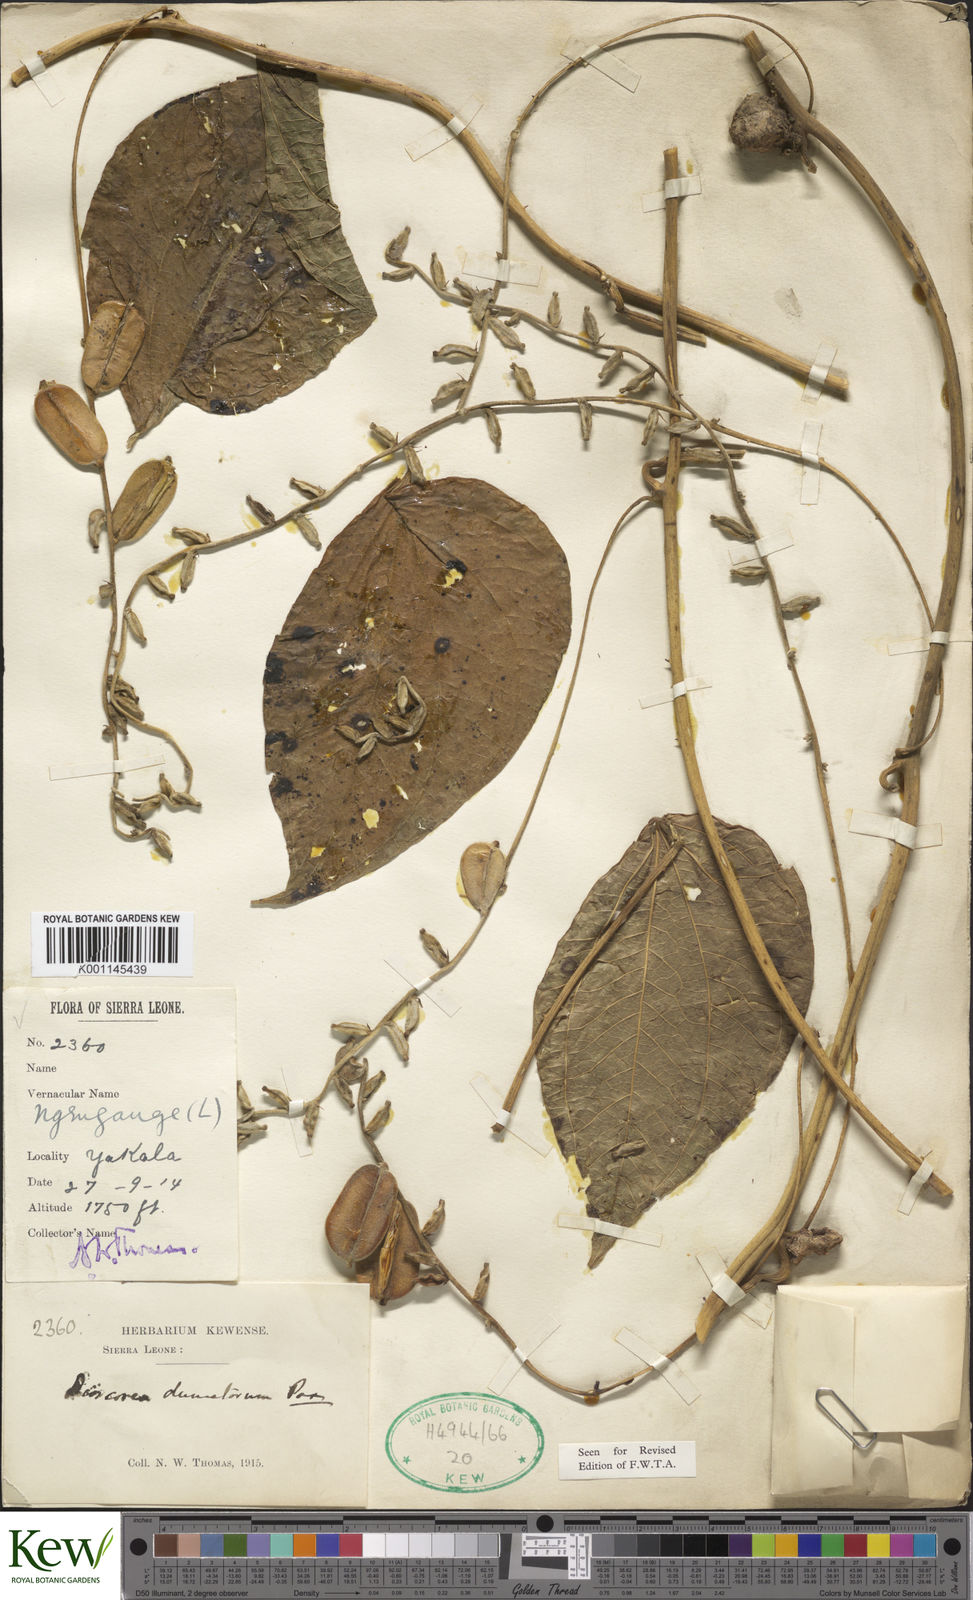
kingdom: Plantae
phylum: Tracheophyta
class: Liliopsida
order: Dioscoreales
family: Dioscoreaceae
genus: Dioscorea
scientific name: Dioscorea dumetorum
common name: African bitter yam
